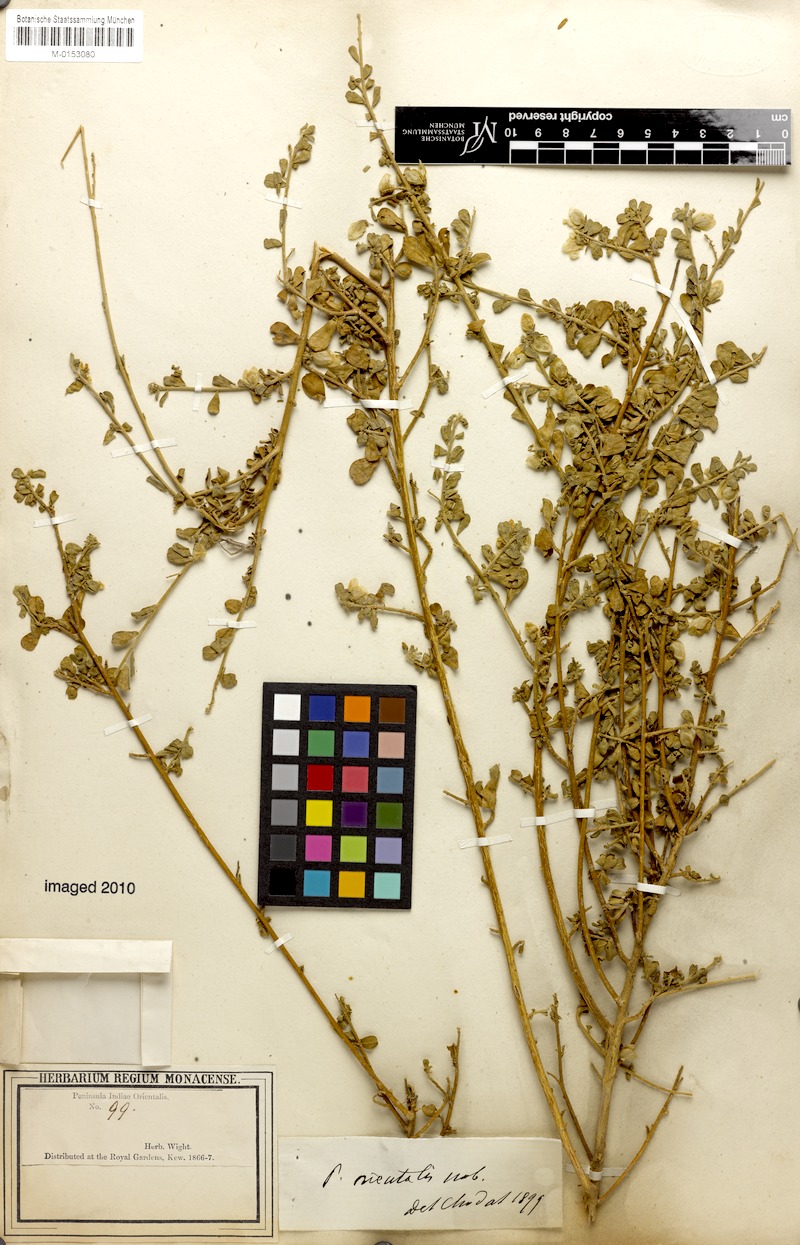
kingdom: Plantae
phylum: Tracheophyta
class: Magnoliopsida
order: Fabales
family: Polygalaceae
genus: Polygala
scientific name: Polygala wightiana
